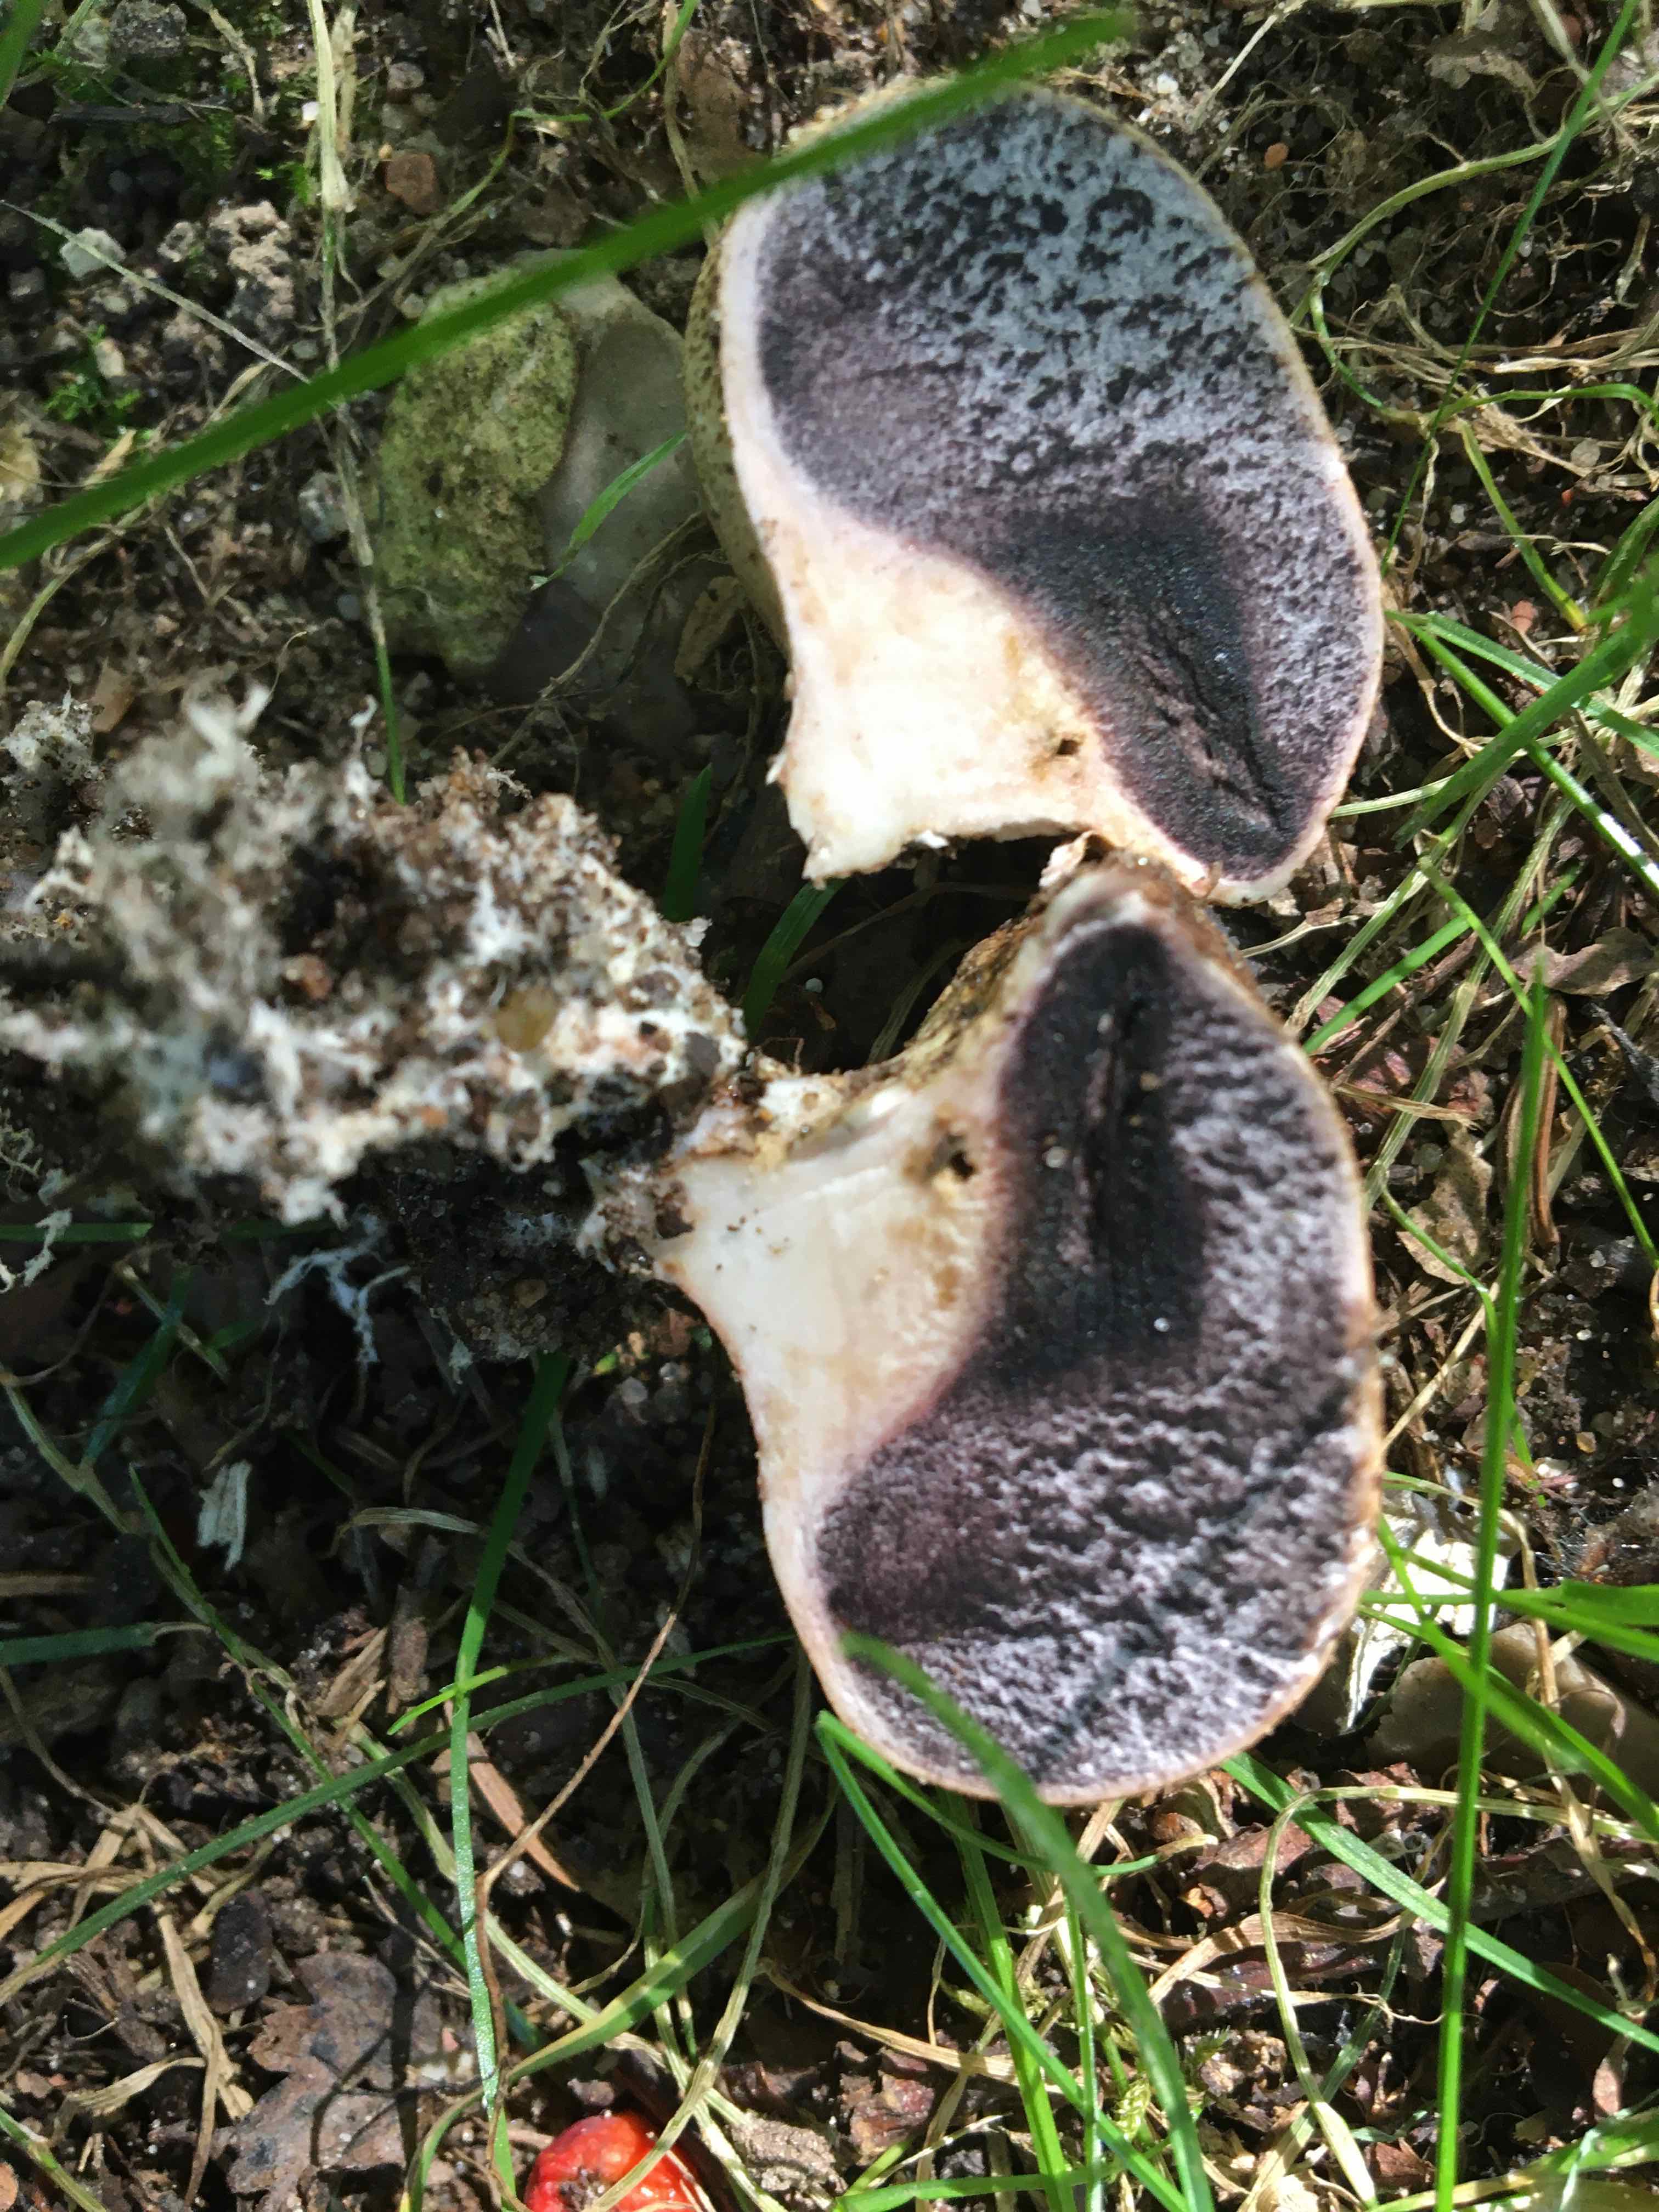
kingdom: Fungi
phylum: Basidiomycota
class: Agaricomycetes
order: Boletales
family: Sclerodermataceae
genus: Scleroderma
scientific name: Scleroderma verrucosum
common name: stilket bruskbold
